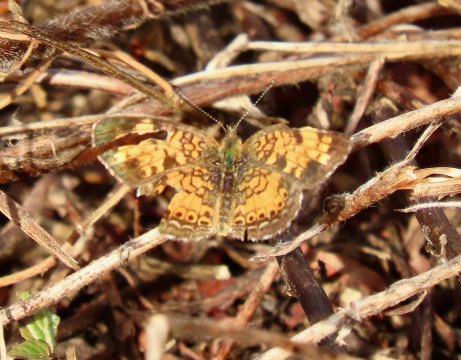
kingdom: Animalia
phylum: Arthropoda
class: Insecta
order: Lepidoptera
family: Nymphalidae
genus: Phyciodes
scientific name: Phyciodes tharos
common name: Pearl Crescent
